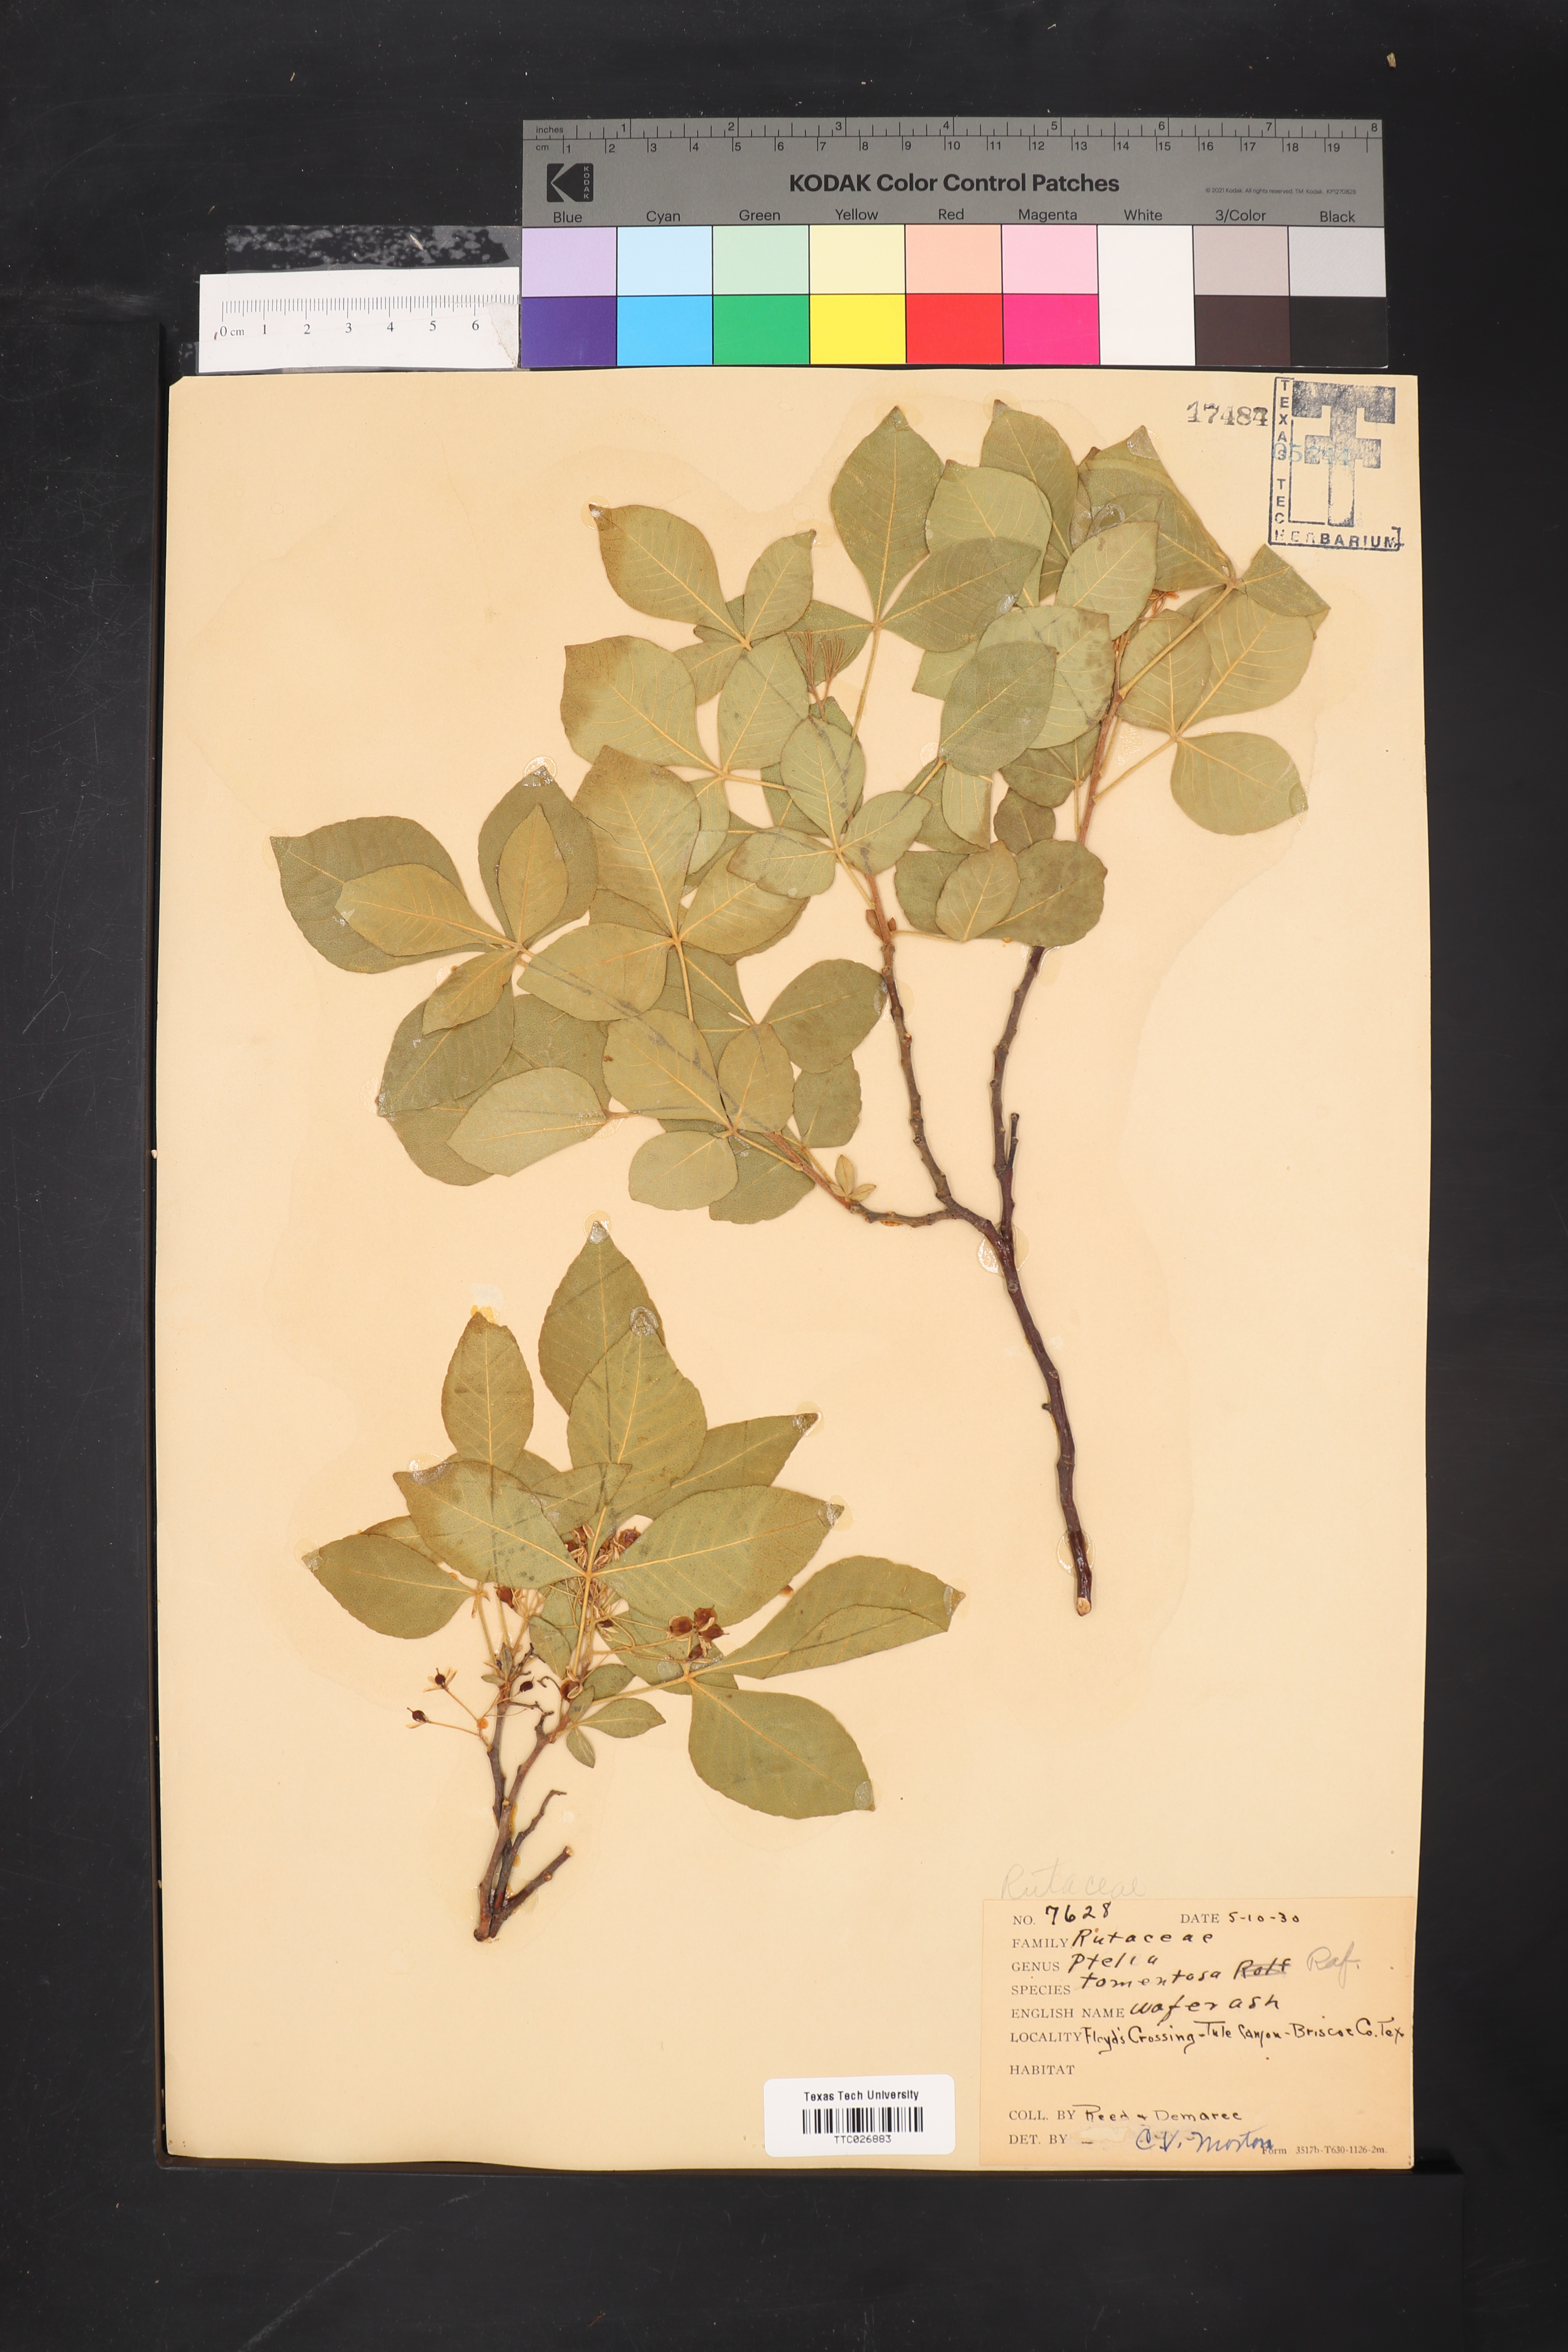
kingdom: Plantae
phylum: Tracheophyta
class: Magnoliopsida
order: Sapindales
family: Rutaceae
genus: Ptelea
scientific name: Ptelea trifoliata
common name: Common hop-tree
